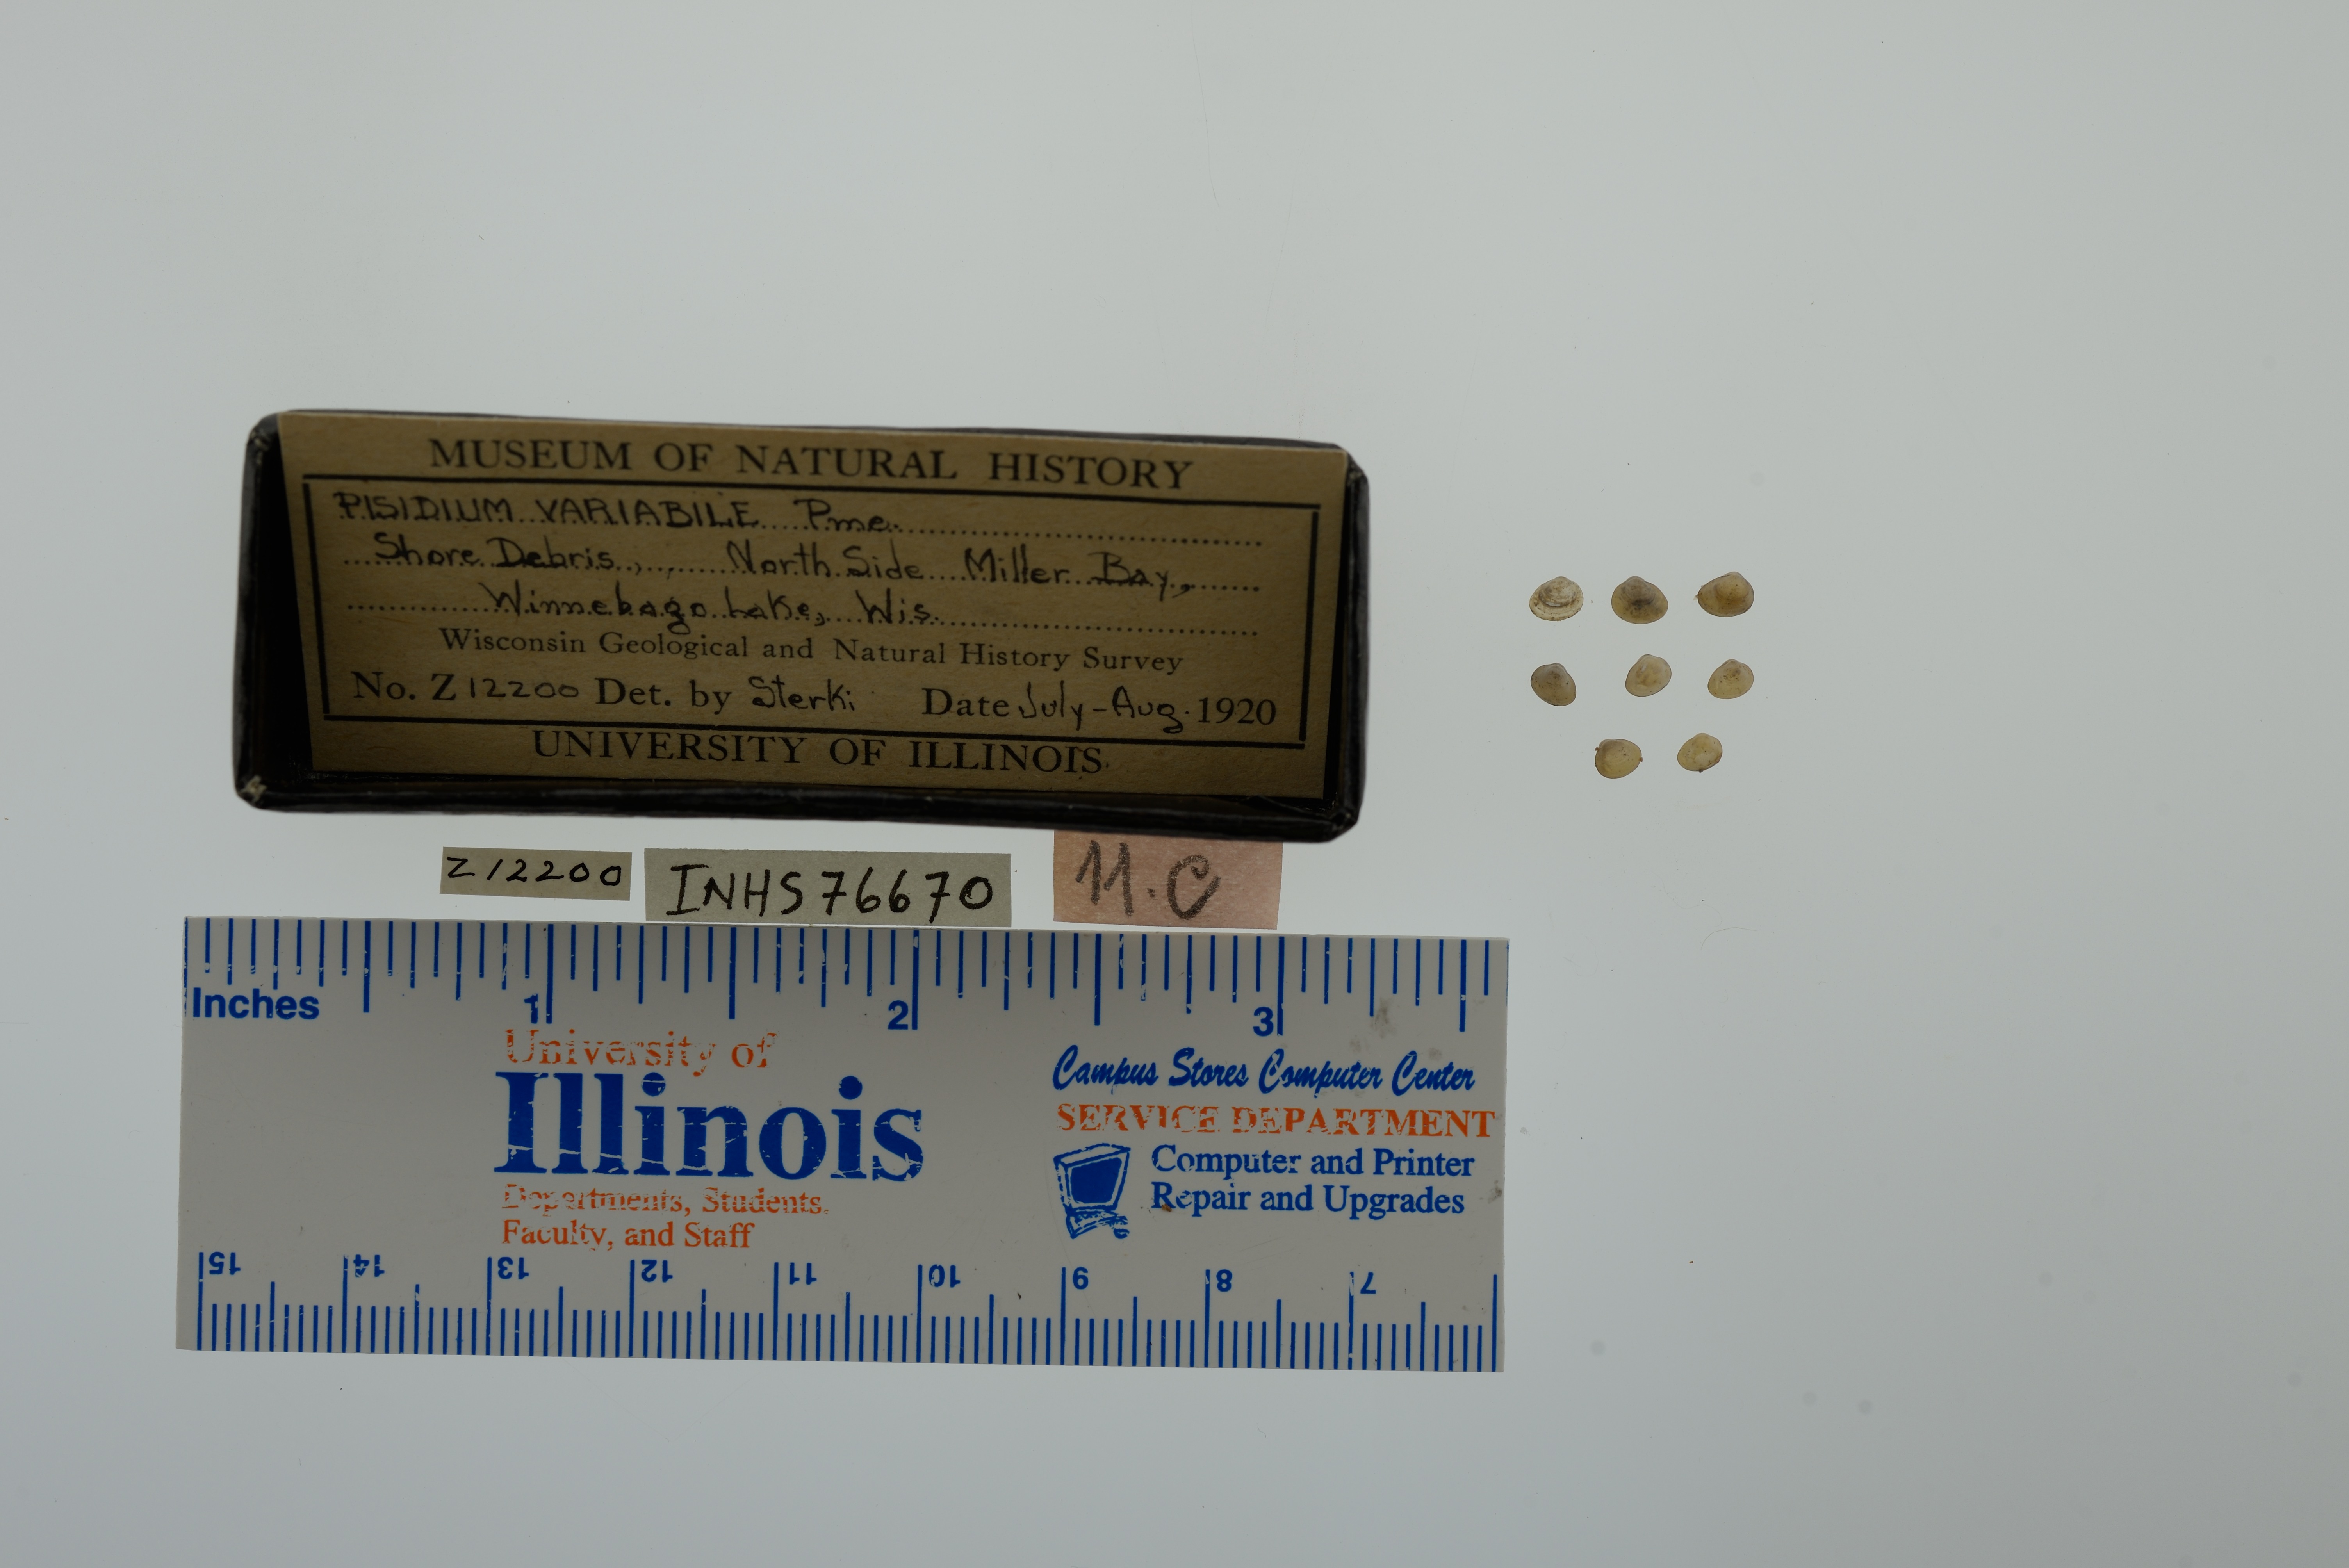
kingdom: Animalia
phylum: Mollusca
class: Bivalvia
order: Sphaeriida
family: Sphaeriidae
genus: Euglesa
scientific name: Euglesa variabilis
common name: Triangular peaclam
